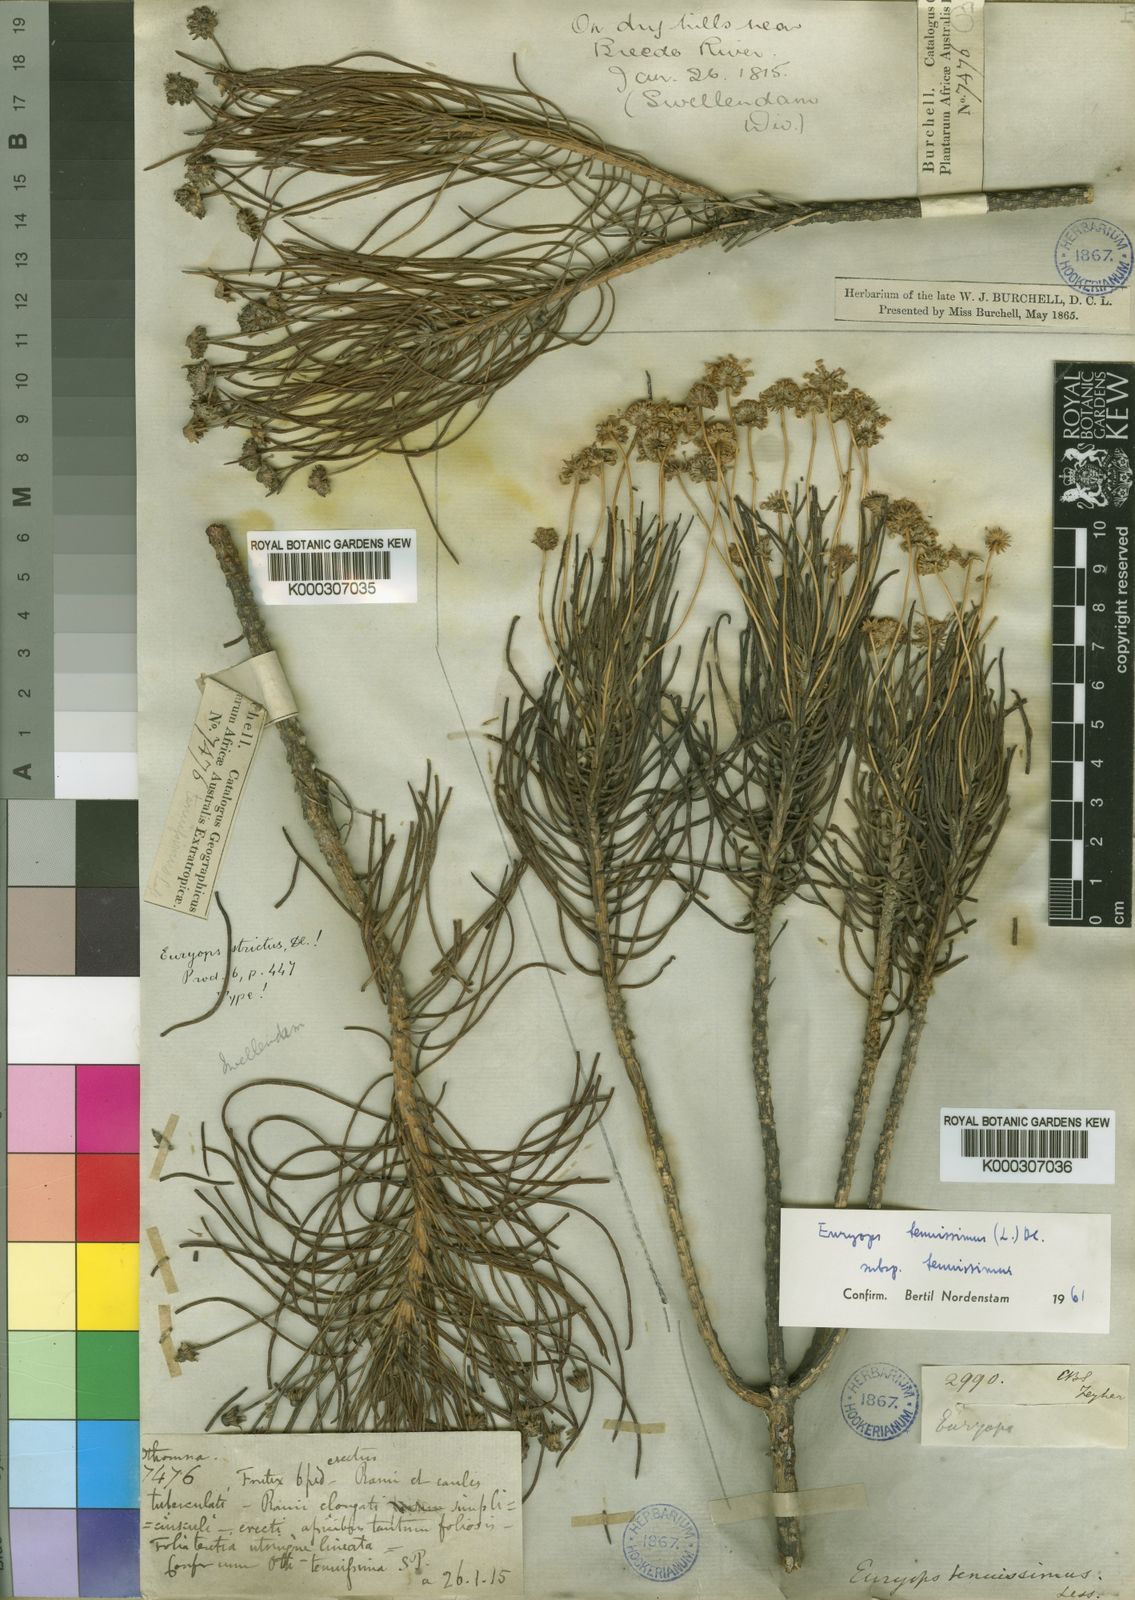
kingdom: Plantae
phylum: Tracheophyta
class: Magnoliopsida
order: Asterales
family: Asteraceae
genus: Euryops
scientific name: Euryops tenuissimus
